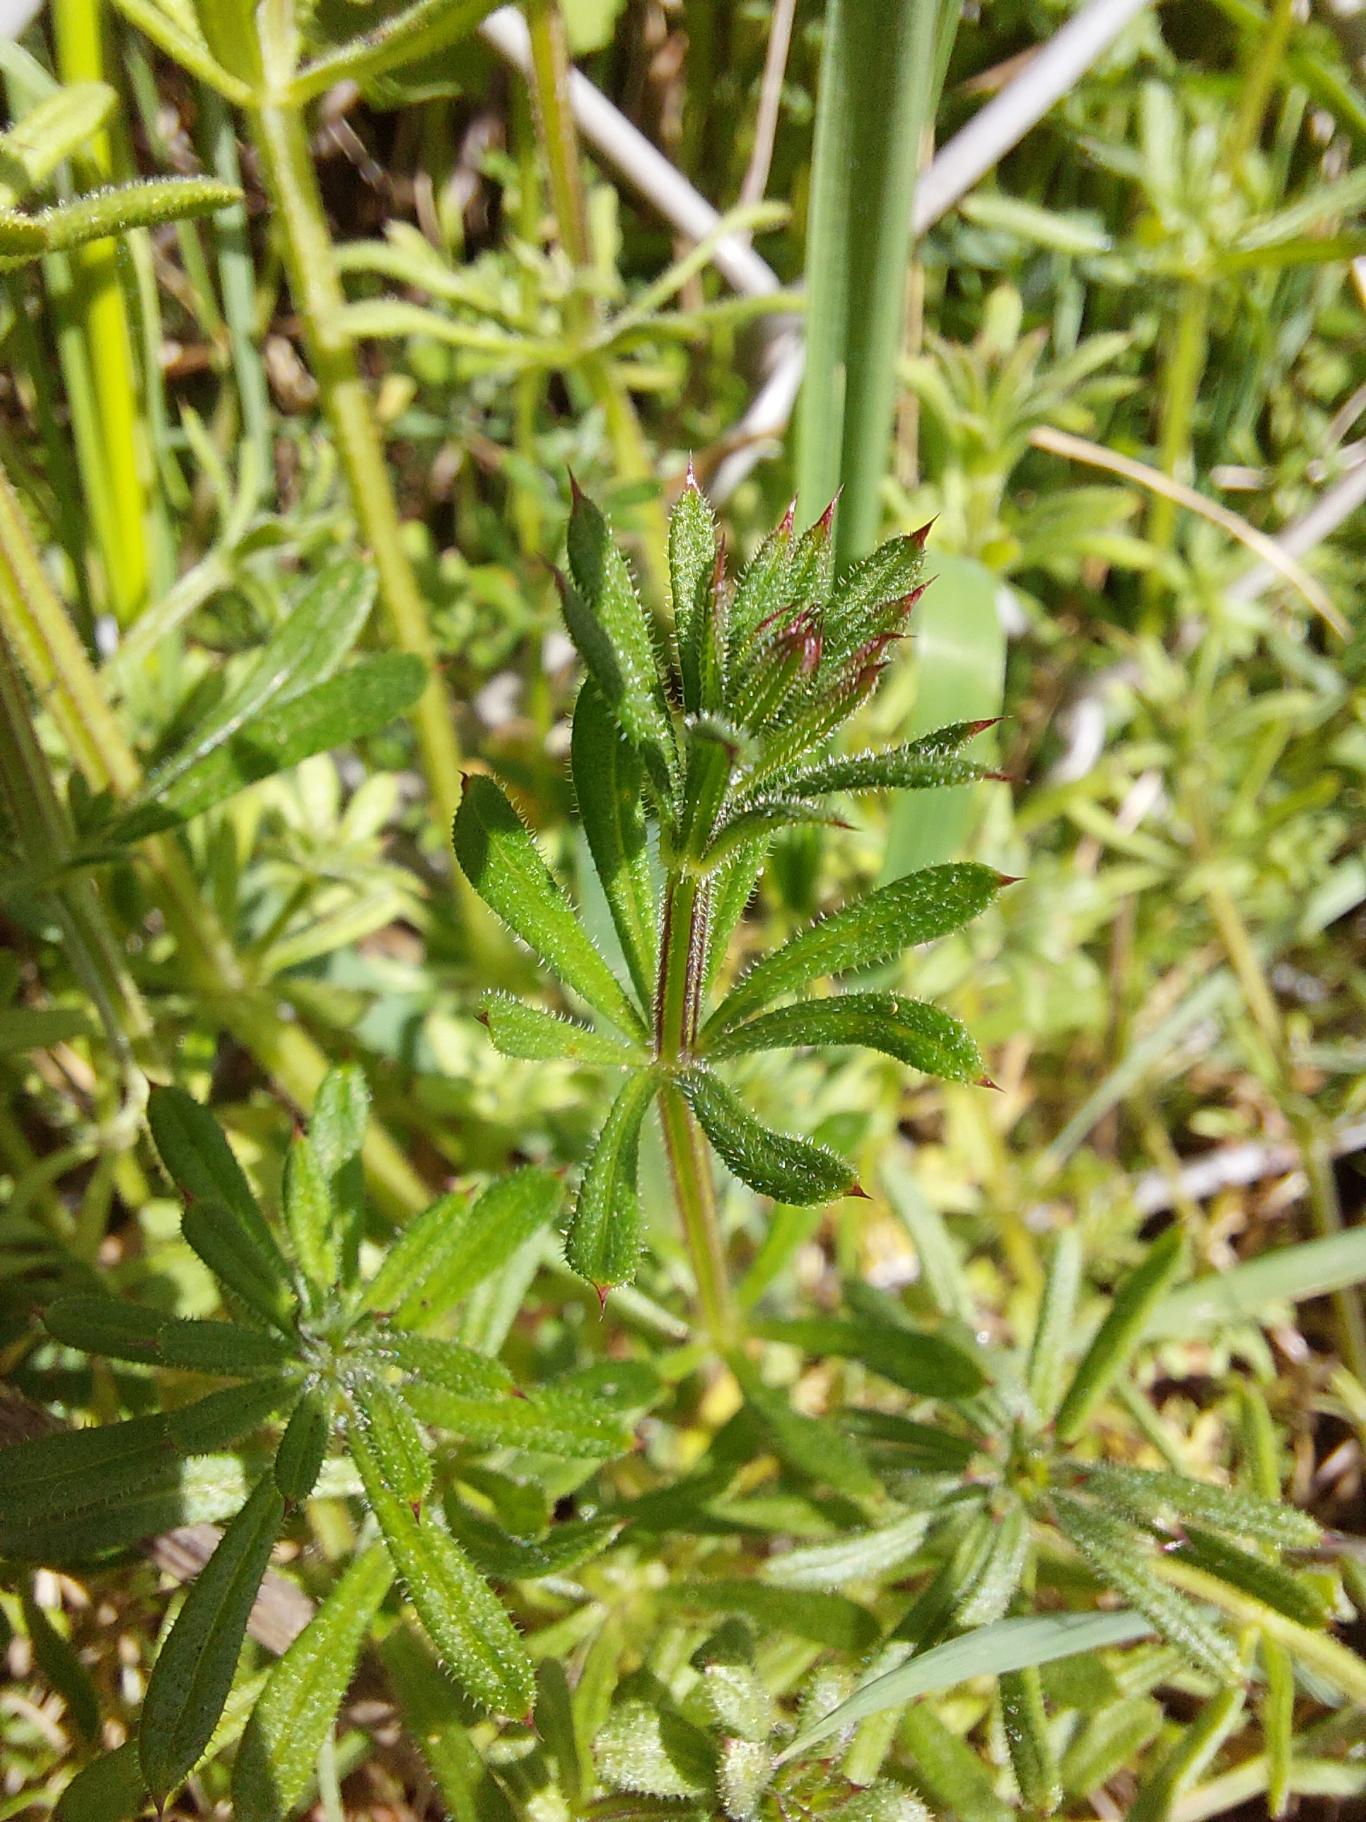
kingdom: Plantae
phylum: Tracheophyta
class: Magnoliopsida
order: Gentianales
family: Rubiaceae
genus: Galium
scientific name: Galium aparine
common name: Burre-snerre
